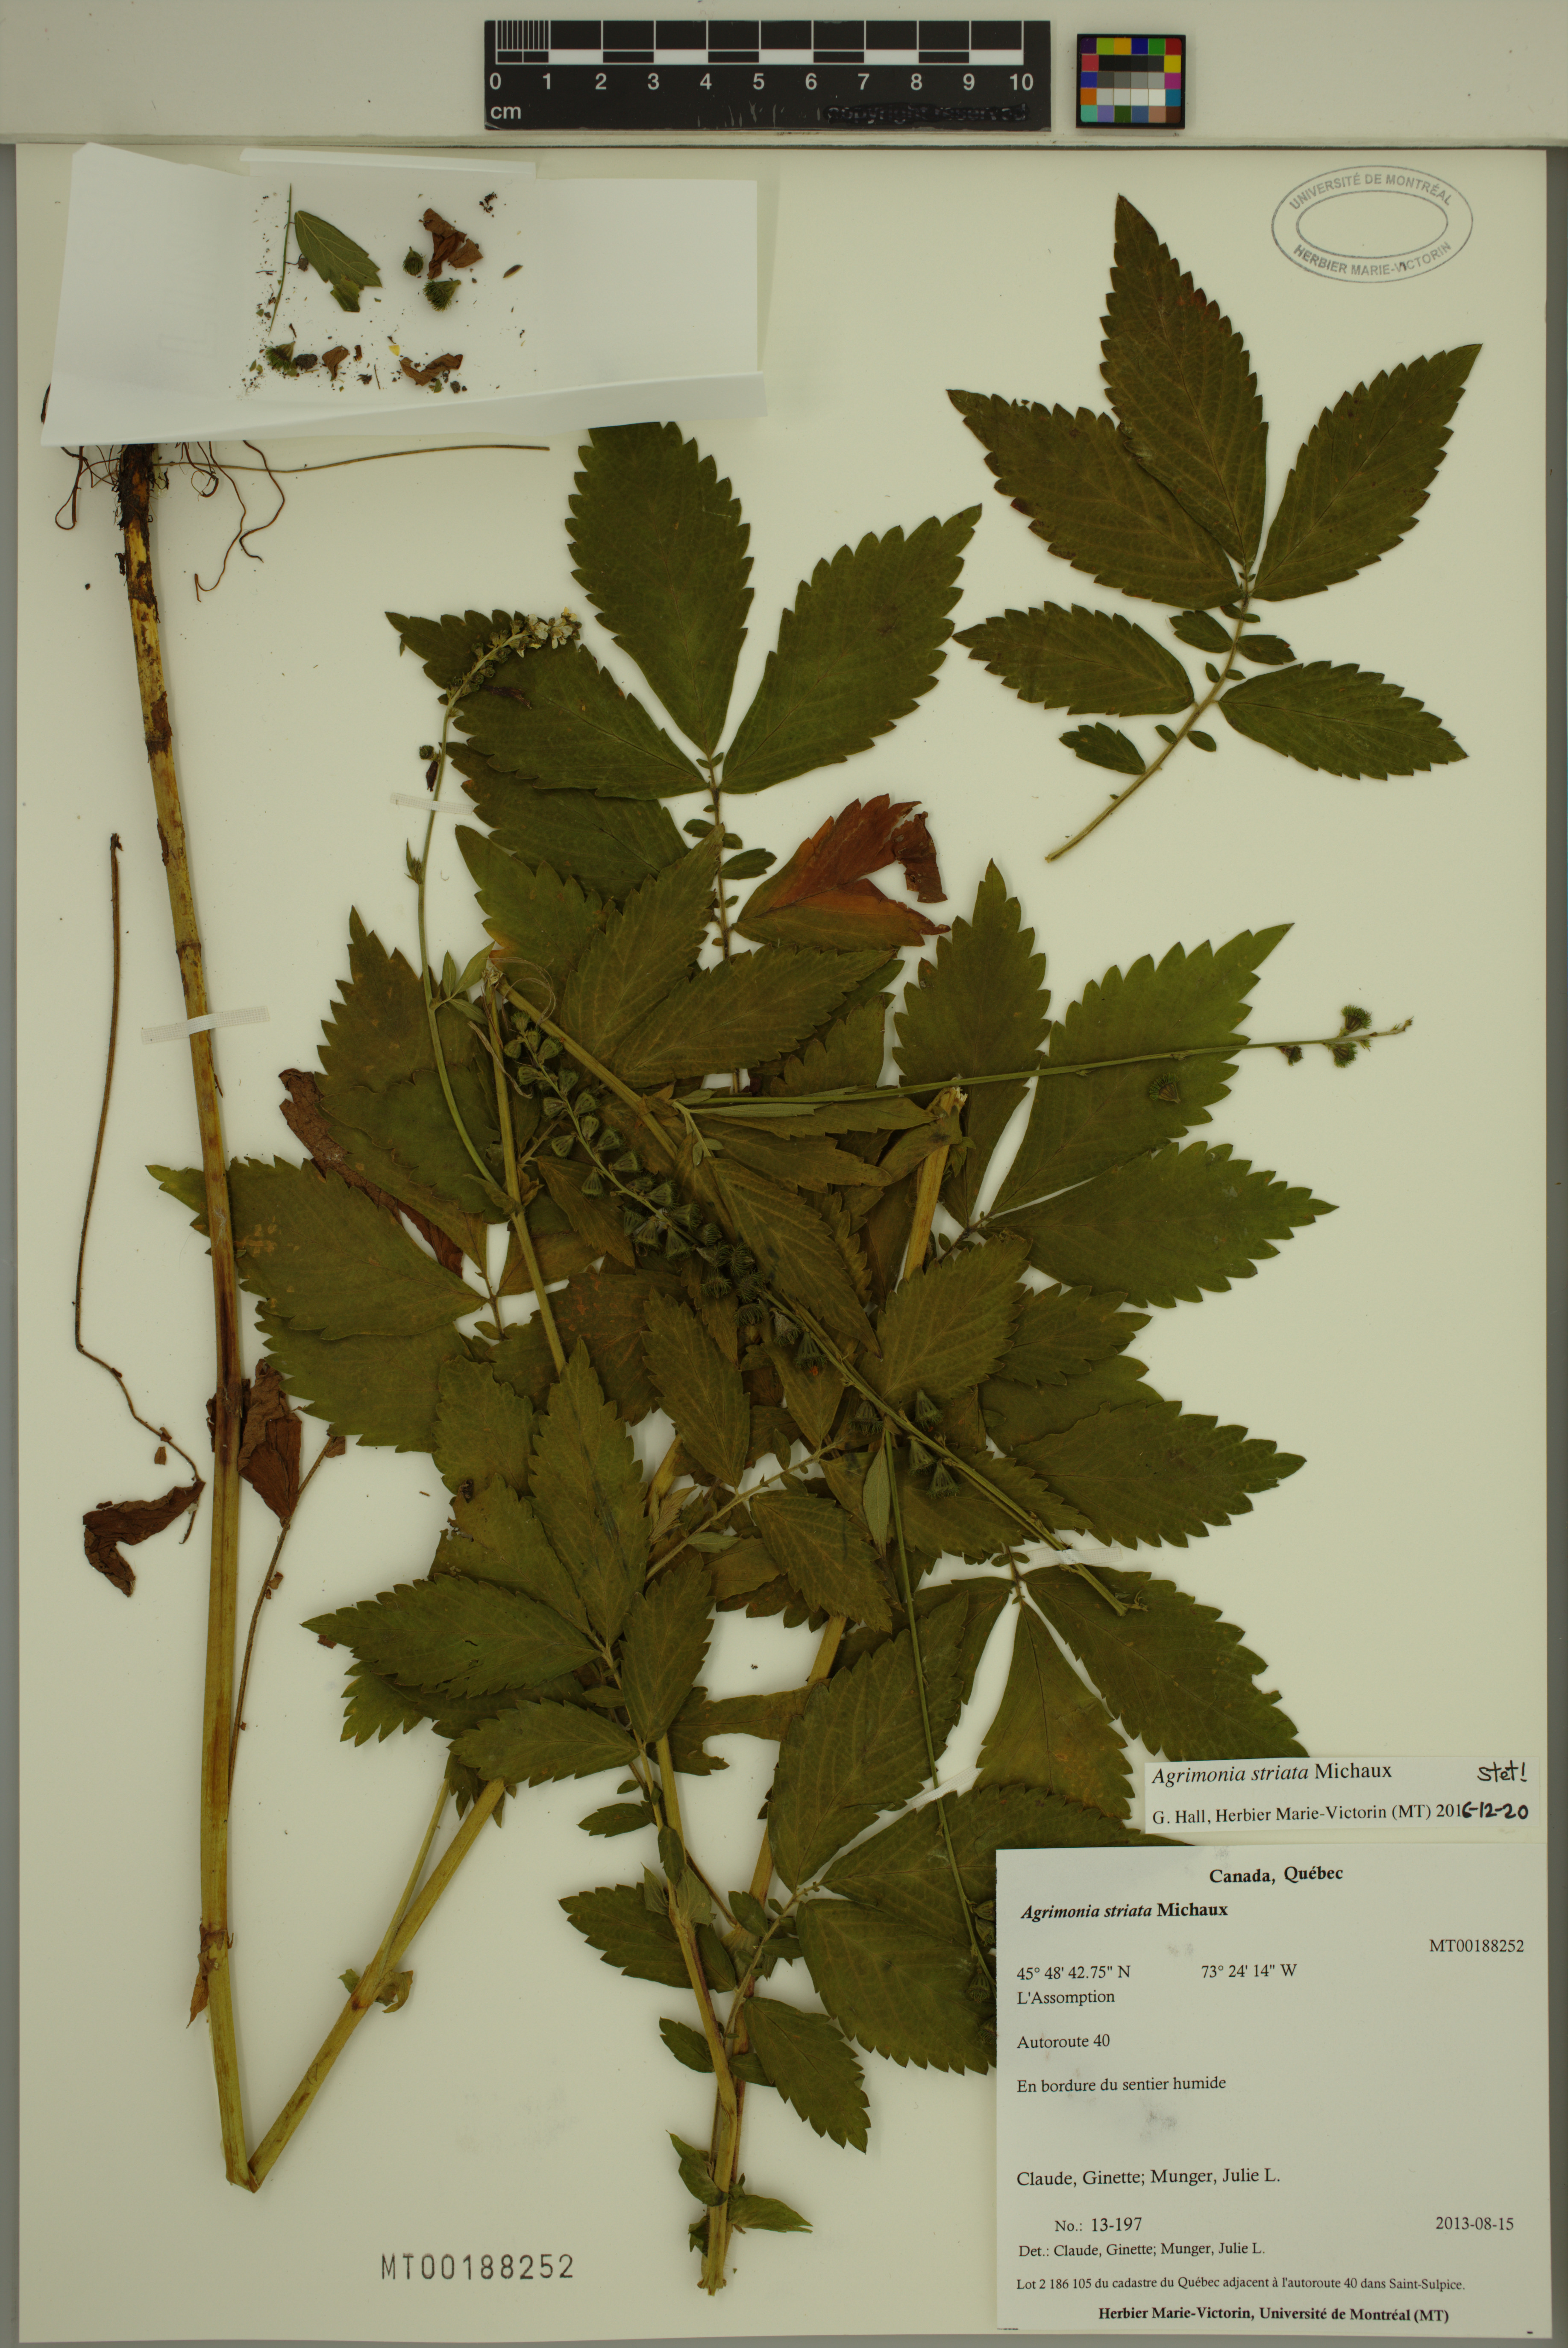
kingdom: Plantae
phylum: Tracheophyta
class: Magnoliopsida
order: Rosales
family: Rosaceae
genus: Agrimonia
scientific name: Agrimonia striata
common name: Britton's agrimony
